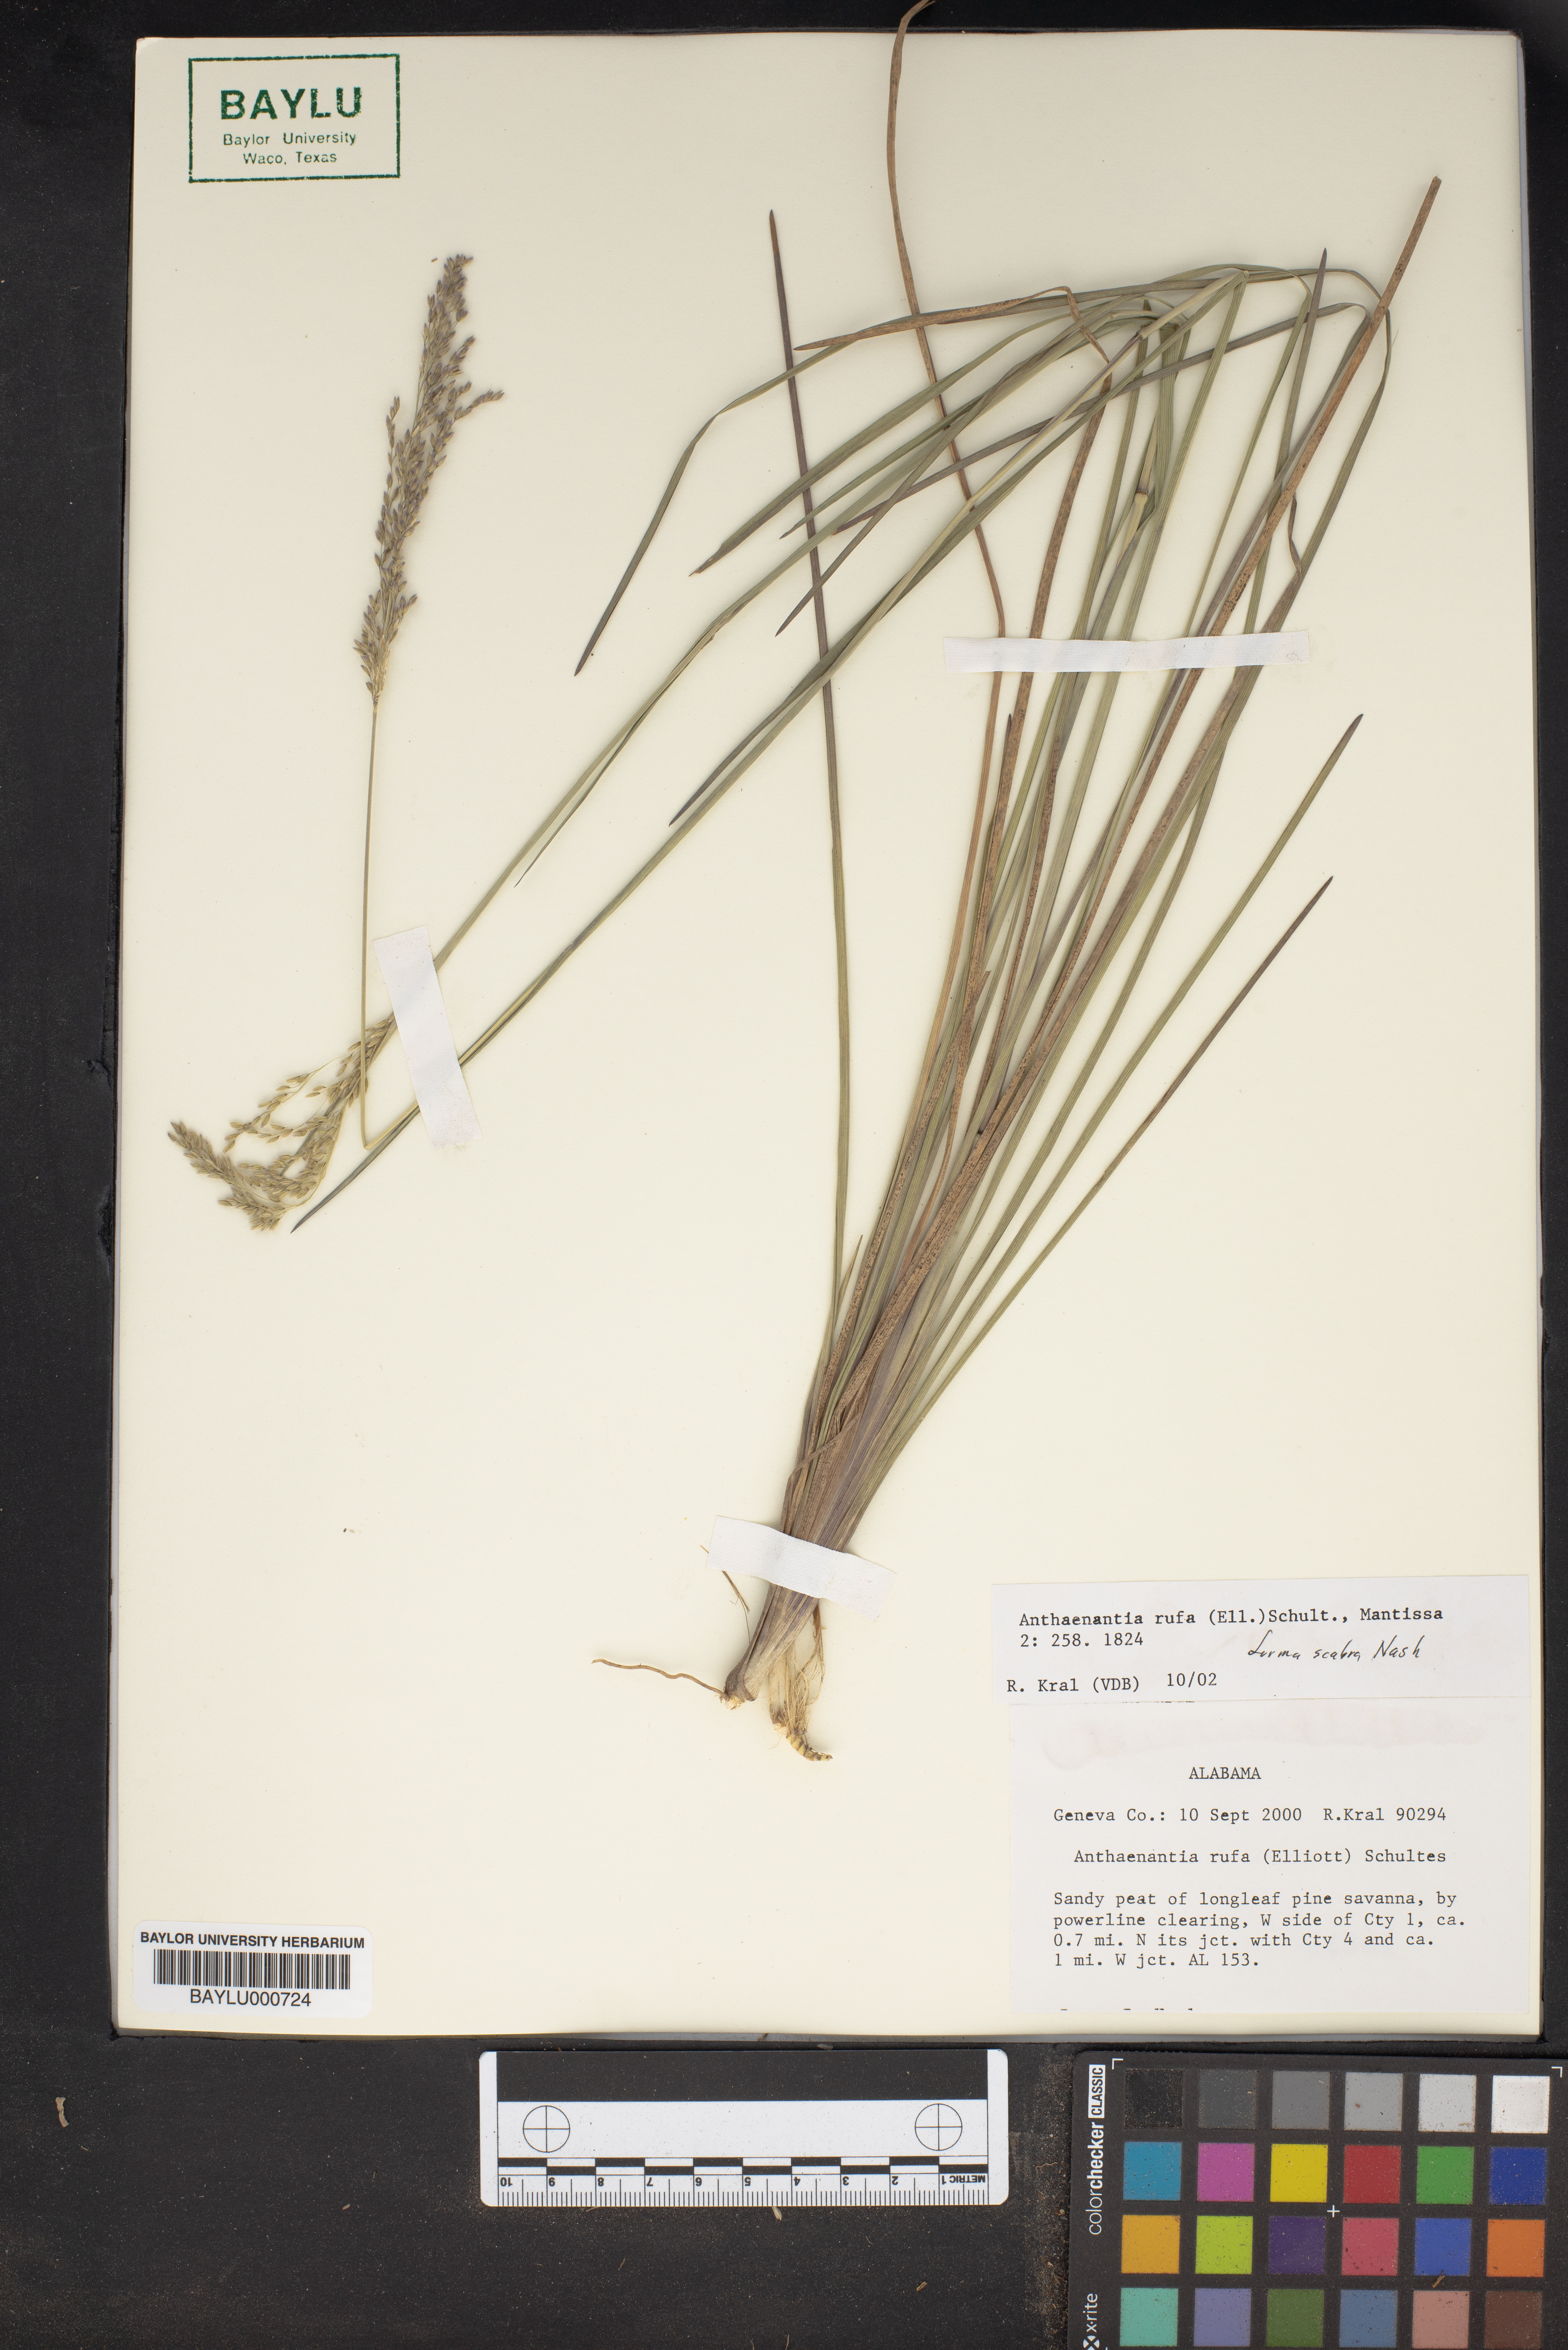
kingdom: Plantae
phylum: Tracheophyta
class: Liliopsida
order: Poales
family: Poaceae
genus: Anthenantia
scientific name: Anthenantia rufa
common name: Purple silkyscale
